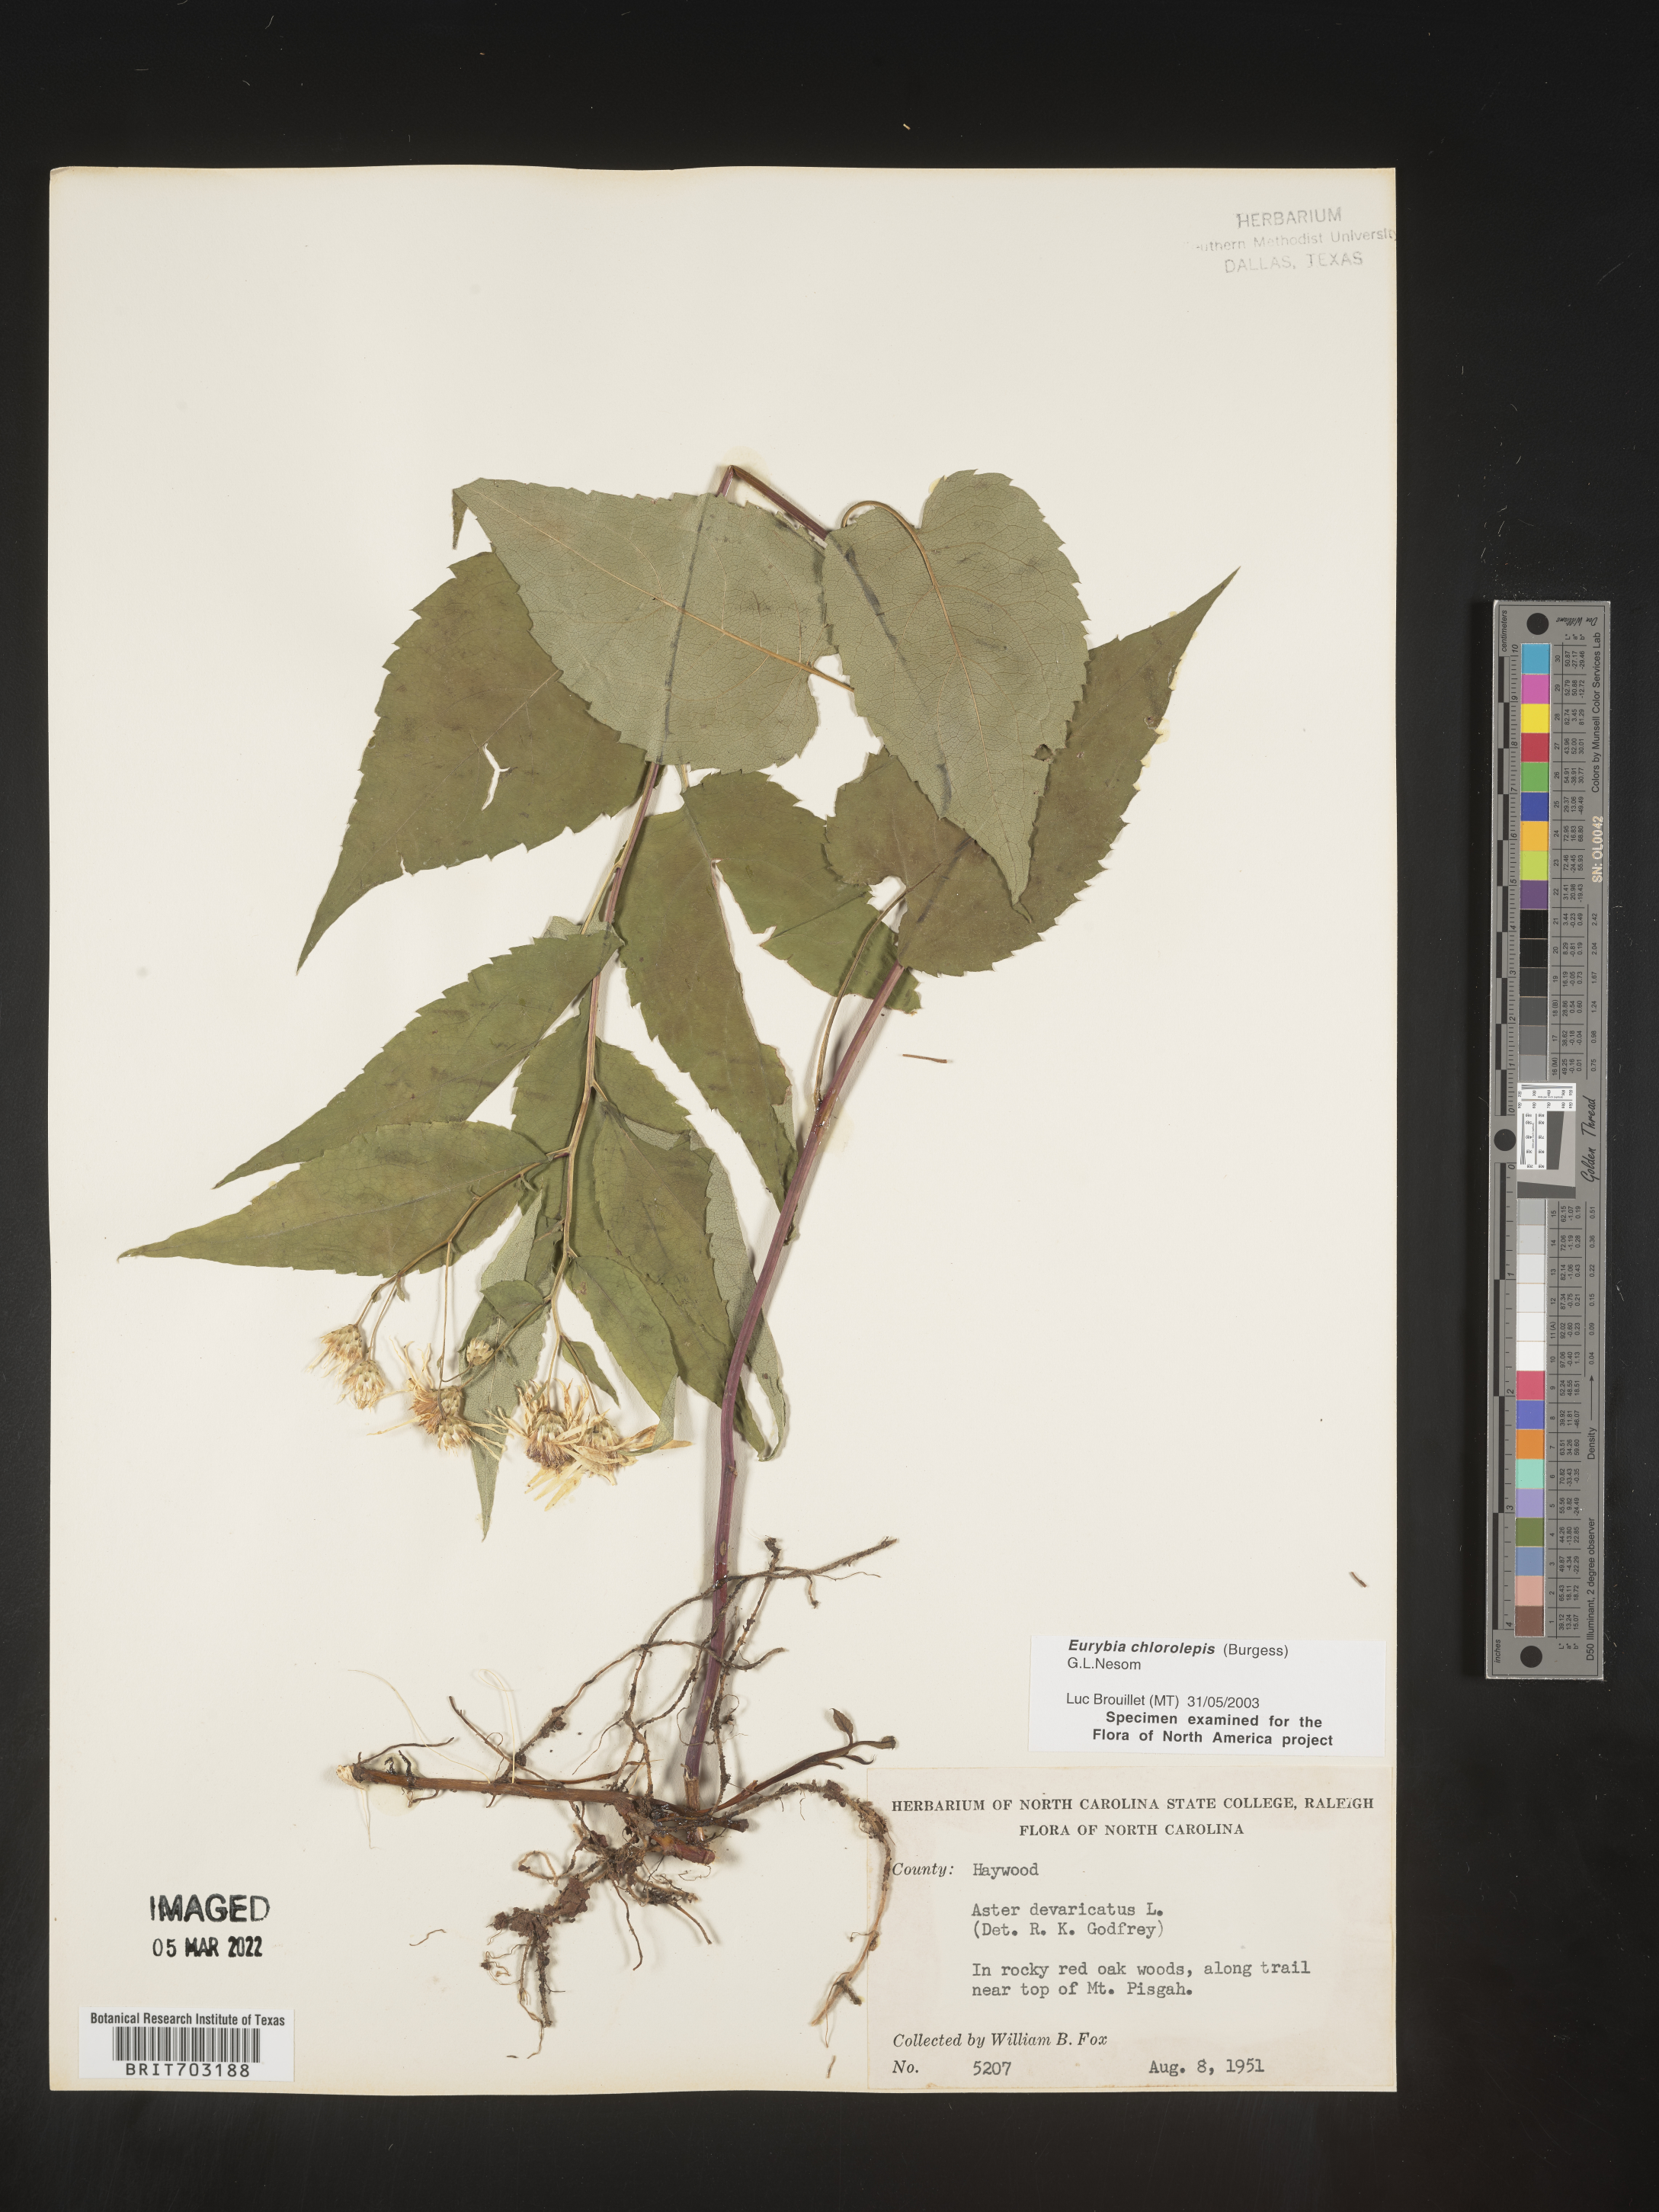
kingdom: Plantae
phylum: Tracheophyta
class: Magnoliopsida
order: Asterales
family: Asteraceae
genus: Eurybia
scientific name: Eurybia chlorolepis
